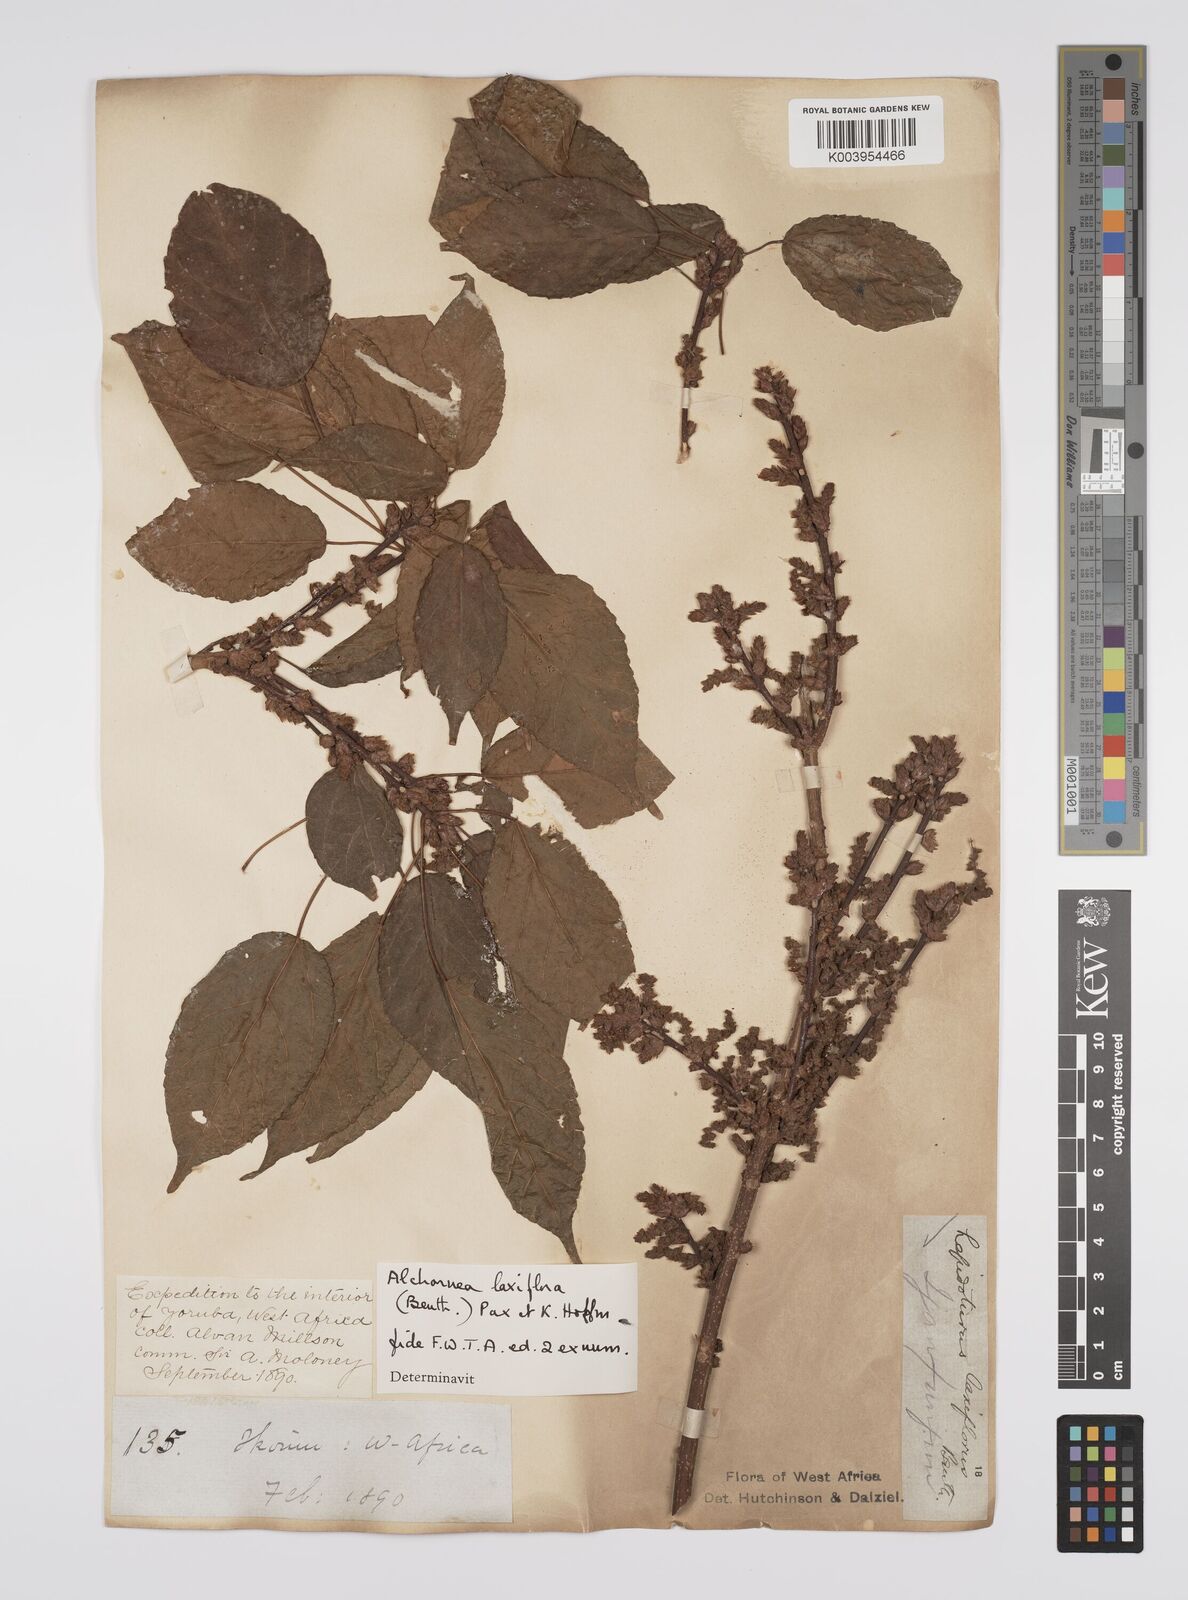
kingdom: Plantae
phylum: Tracheophyta
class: Magnoliopsida
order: Malpighiales
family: Euphorbiaceae
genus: Alchornea
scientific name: Alchornea laxiflora
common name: Lowveld bead-string
